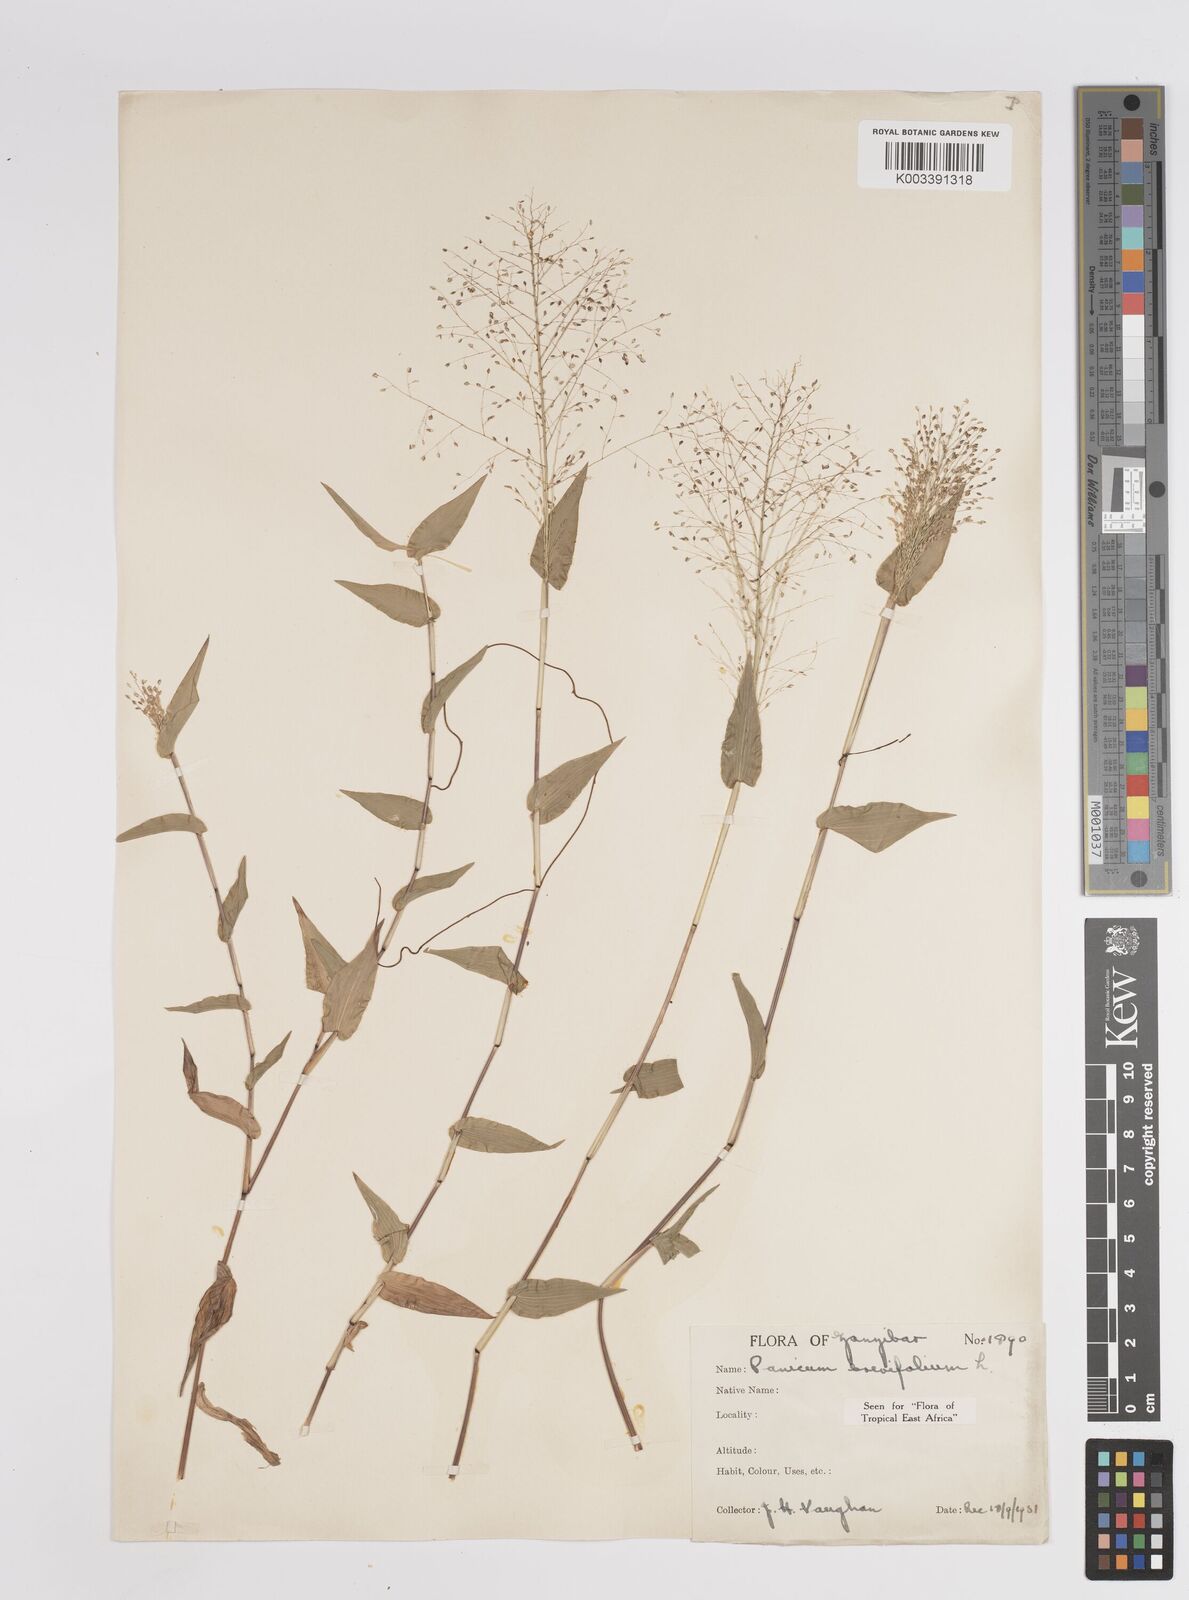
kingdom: Plantae
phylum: Tracheophyta
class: Liliopsida
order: Poales
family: Poaceae
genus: Panicum
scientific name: Panicum brevifolium
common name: Shortleaf panic grass
